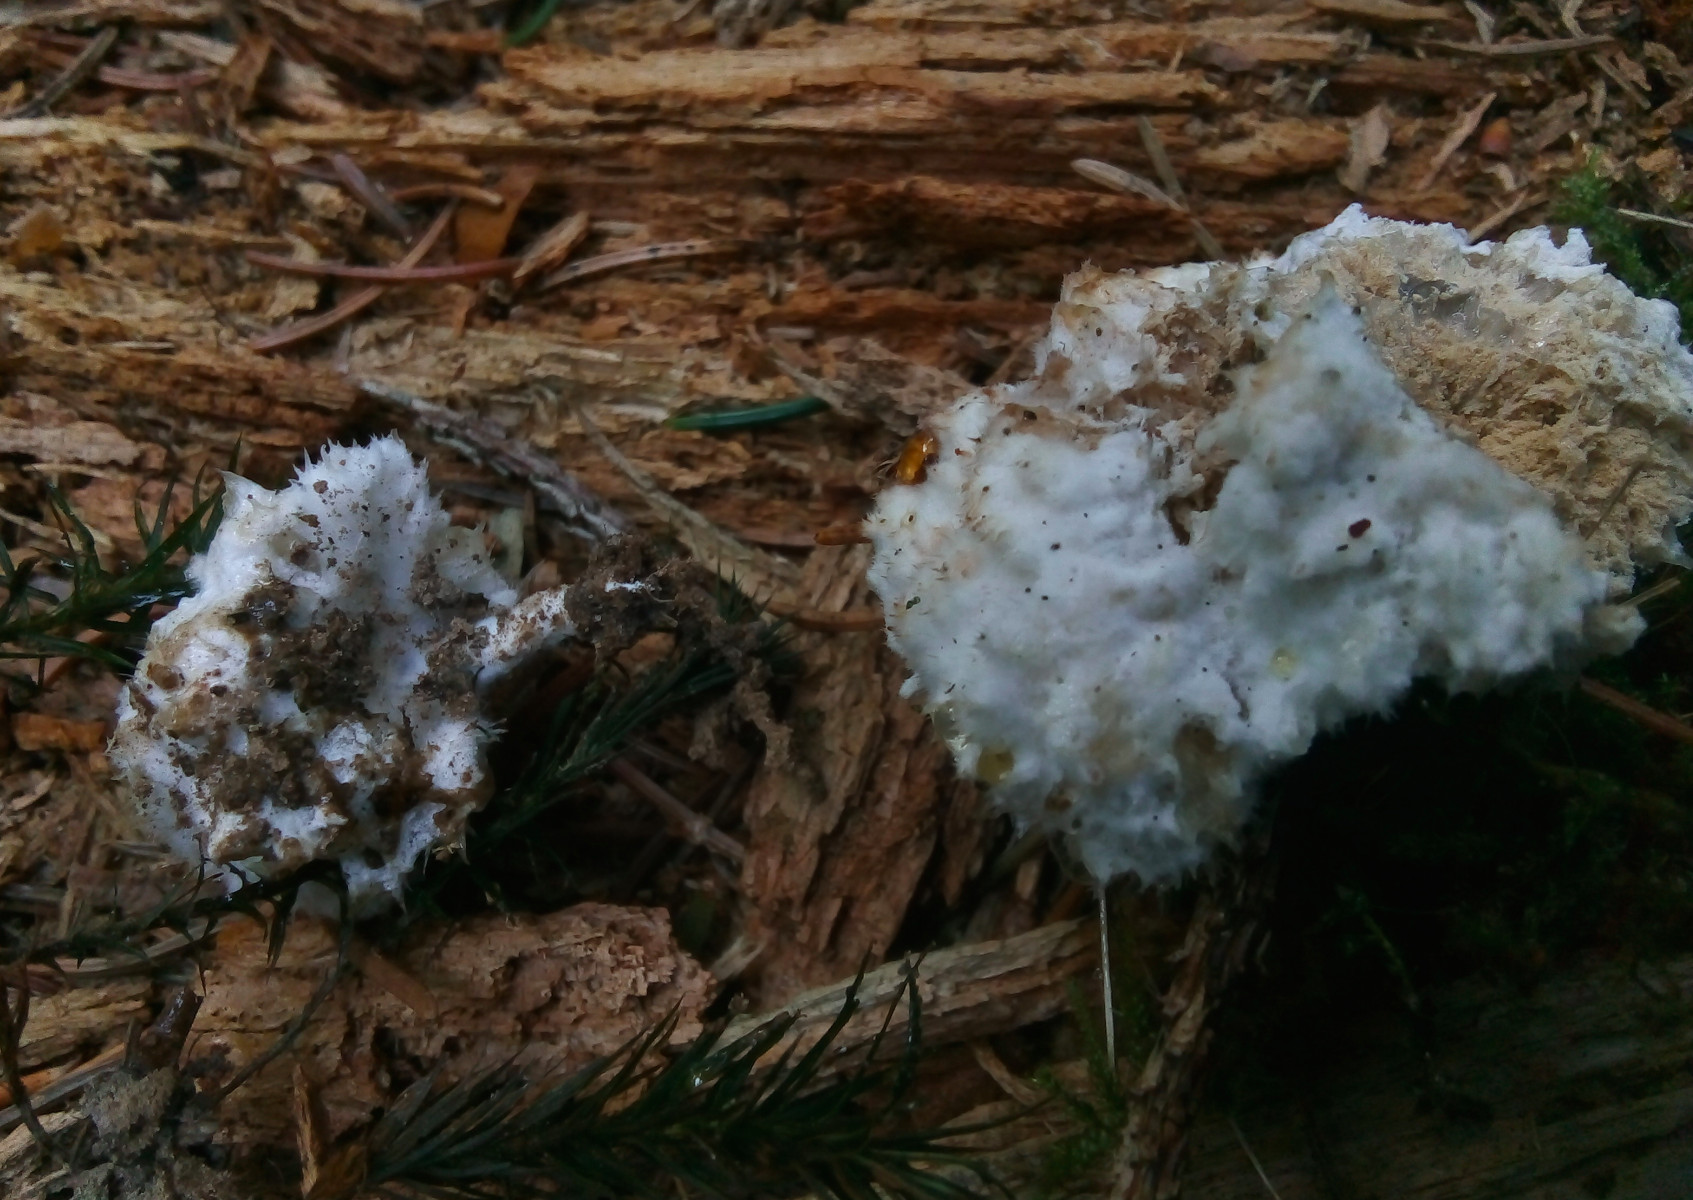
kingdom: Fungi
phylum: Basidiomycota
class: Agaricomycetes
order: Polyporales
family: Dacryobolaceae
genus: Postia
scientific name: Postia ptychogaster
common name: støvende kødporesvamp
